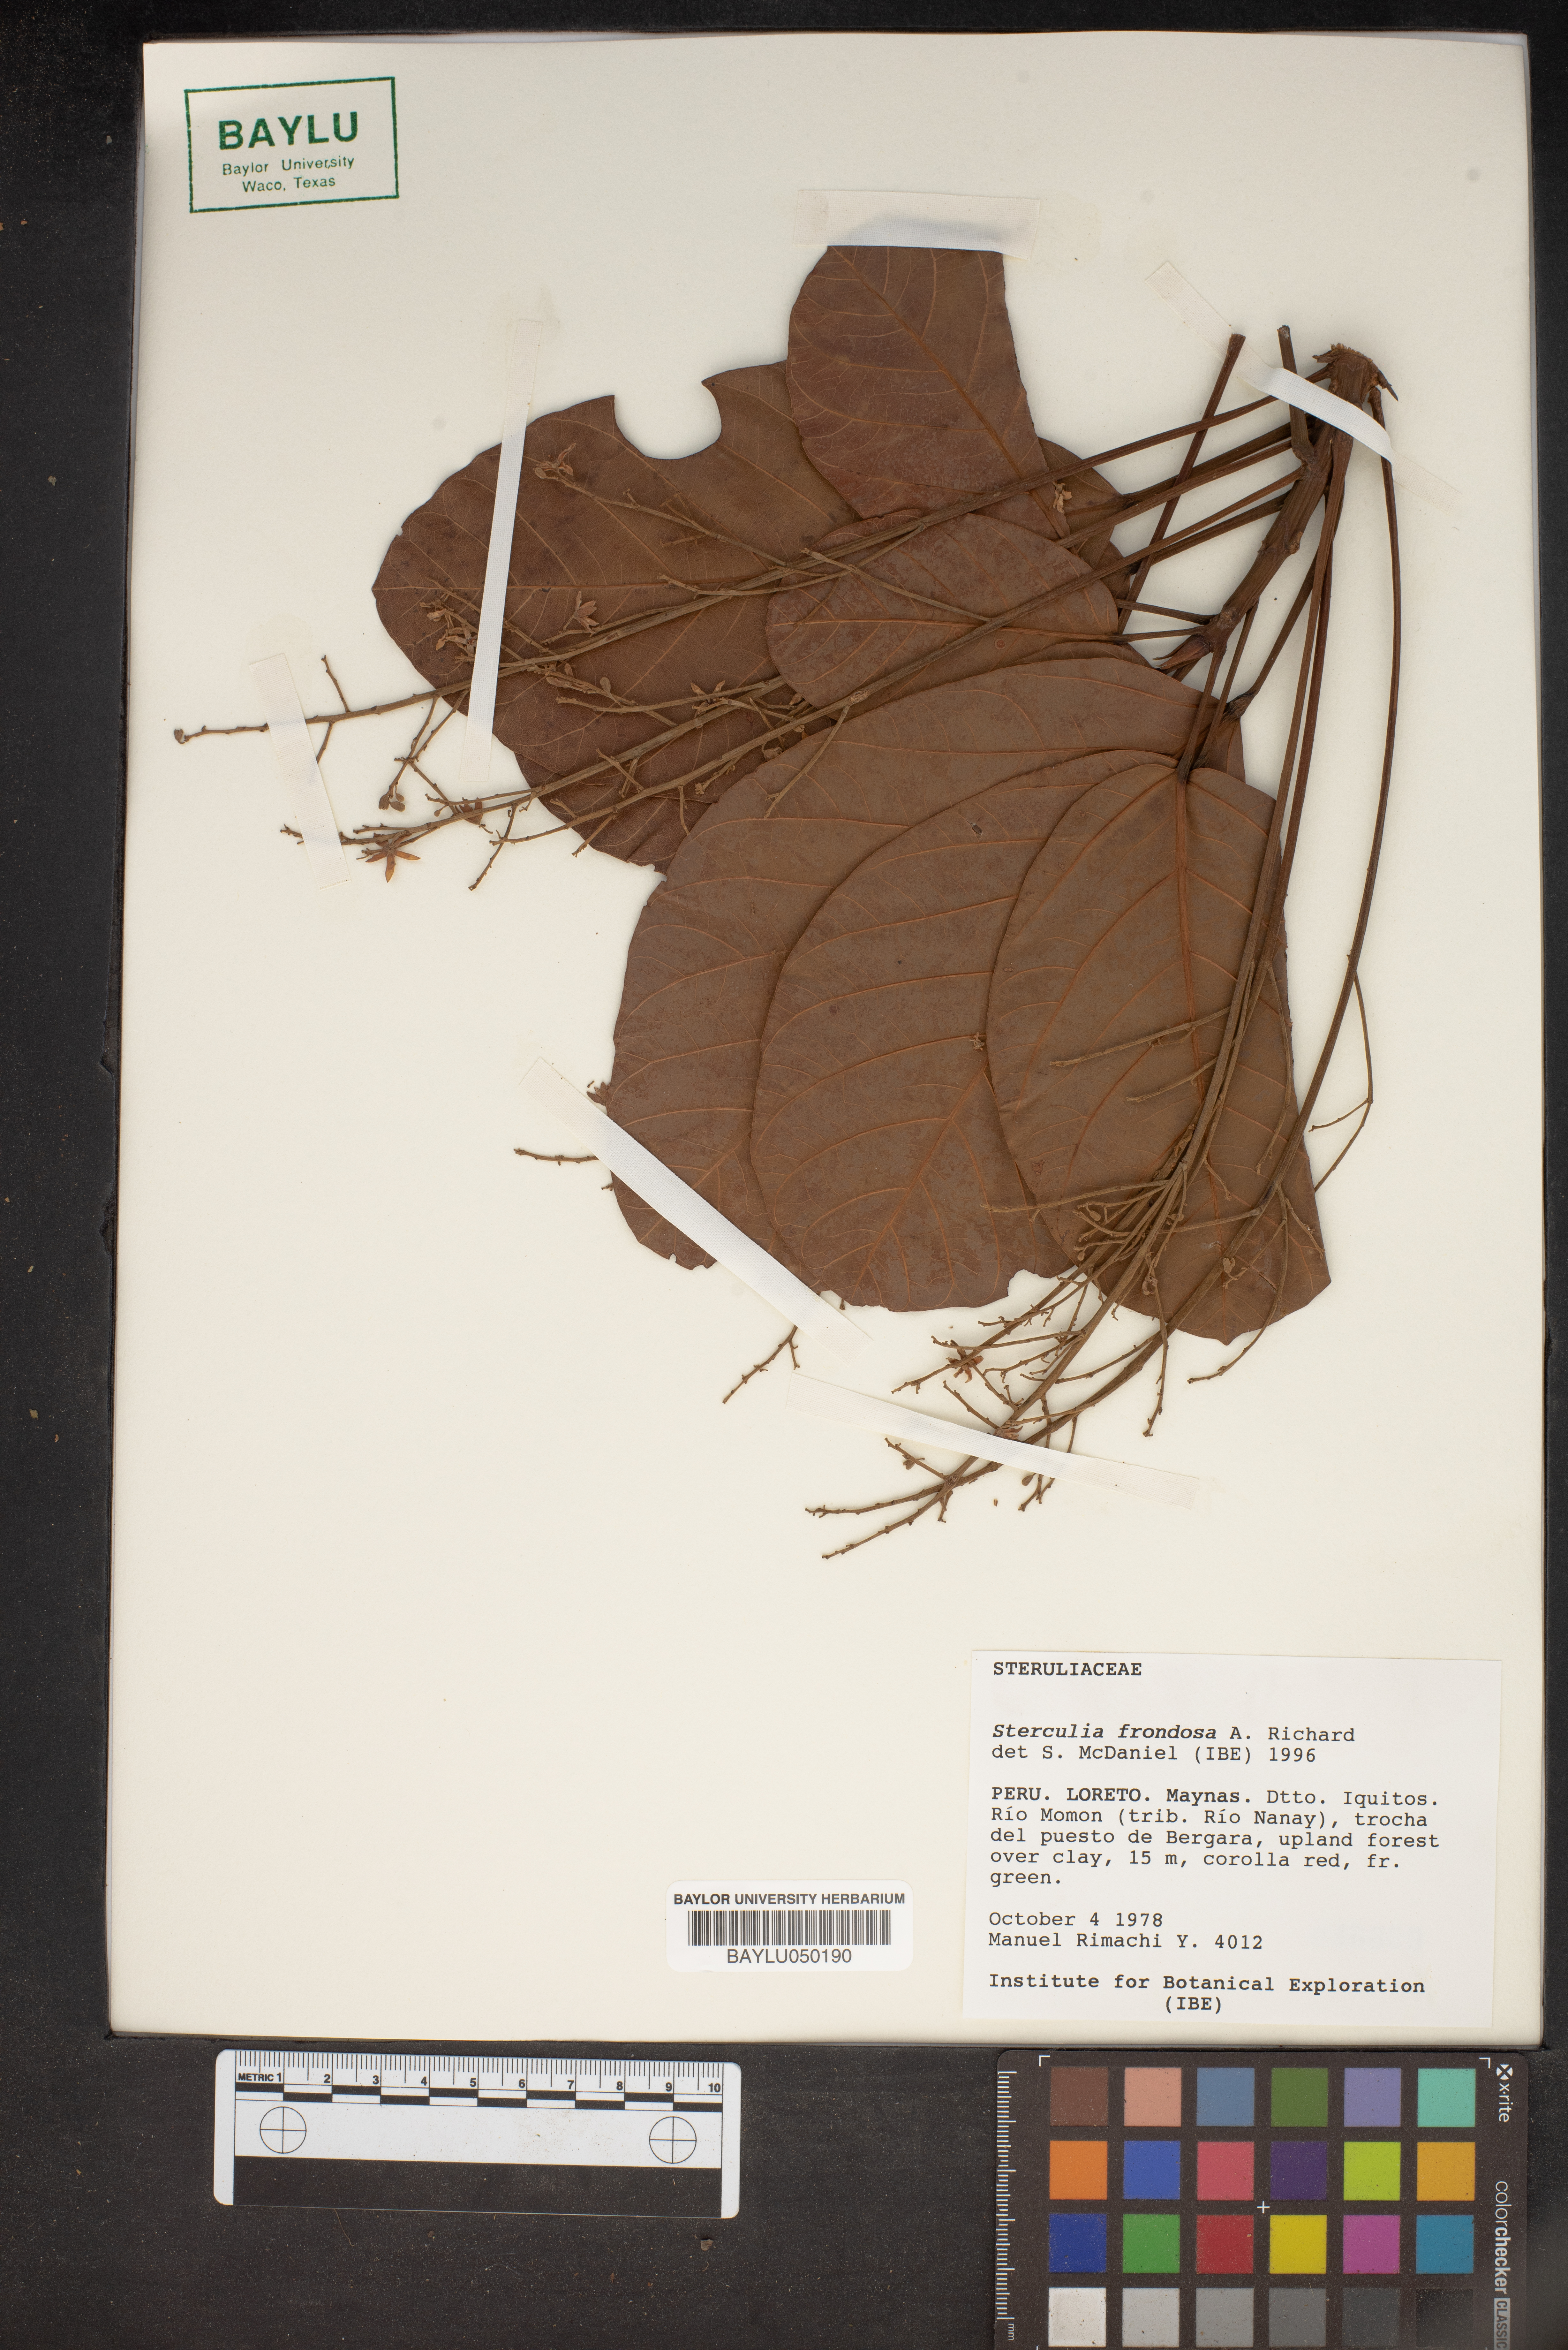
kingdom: Plantae
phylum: Tracheophyta
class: Magnoliopsida
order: Malvales
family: Malvaceae
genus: Sterculia
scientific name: Sterculia frondosa
